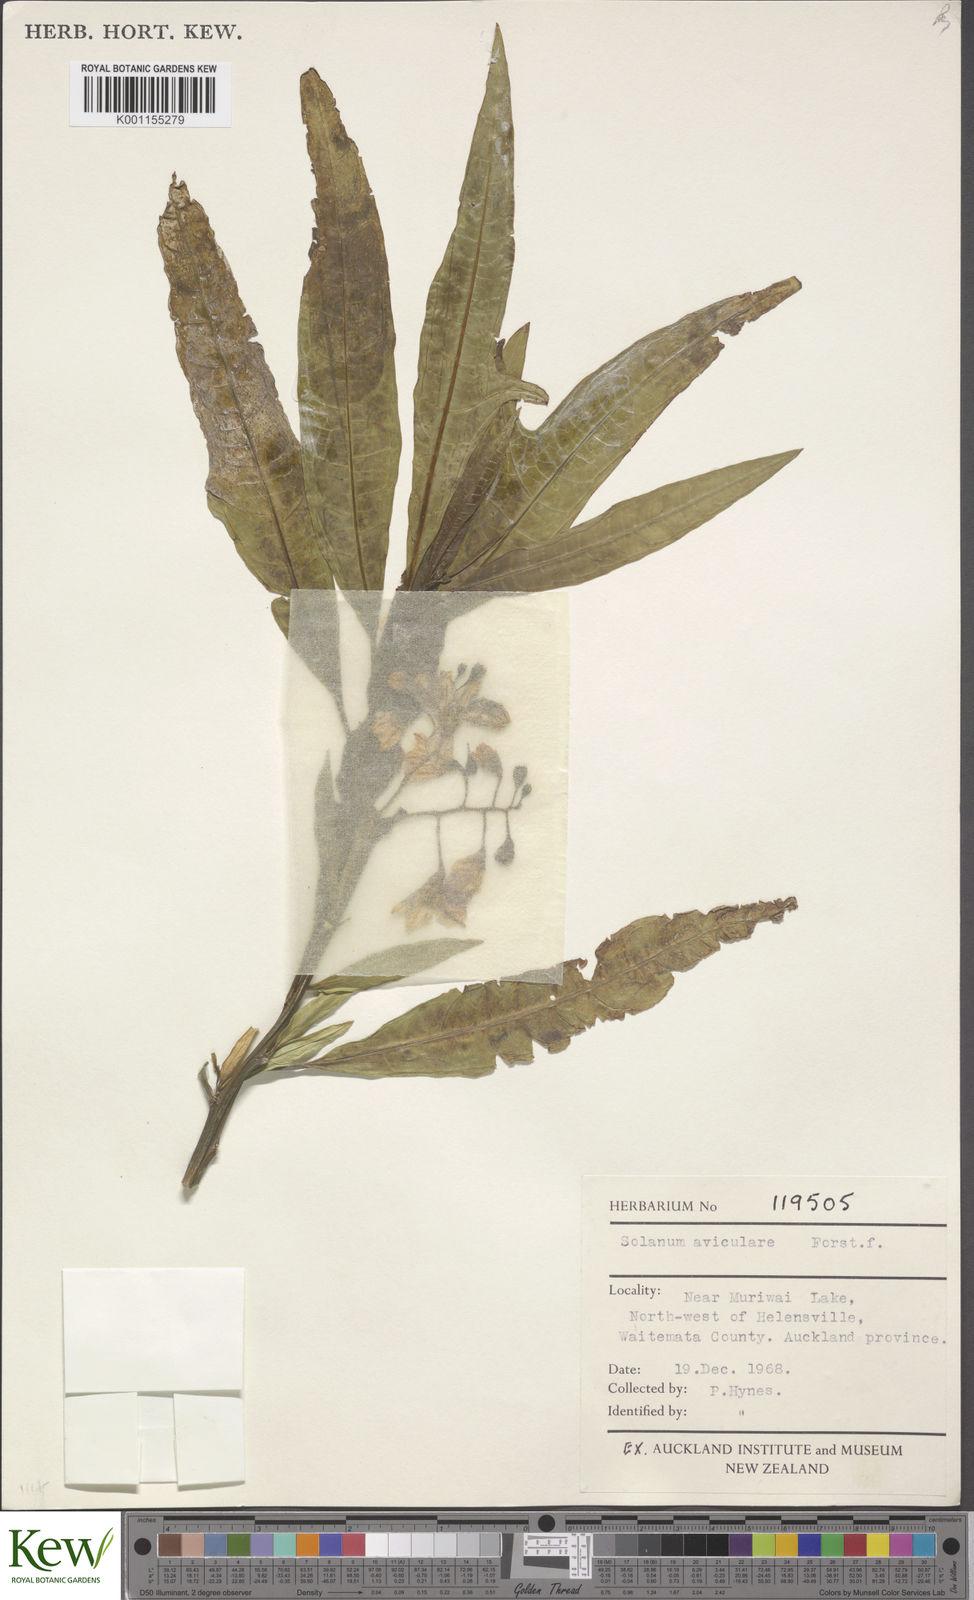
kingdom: Plantae
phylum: Tracheophyta
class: Magnoliopsida
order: Solanales
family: Solanaceae
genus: Solanum
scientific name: Solanum aviculare
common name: New zealand nightshade
